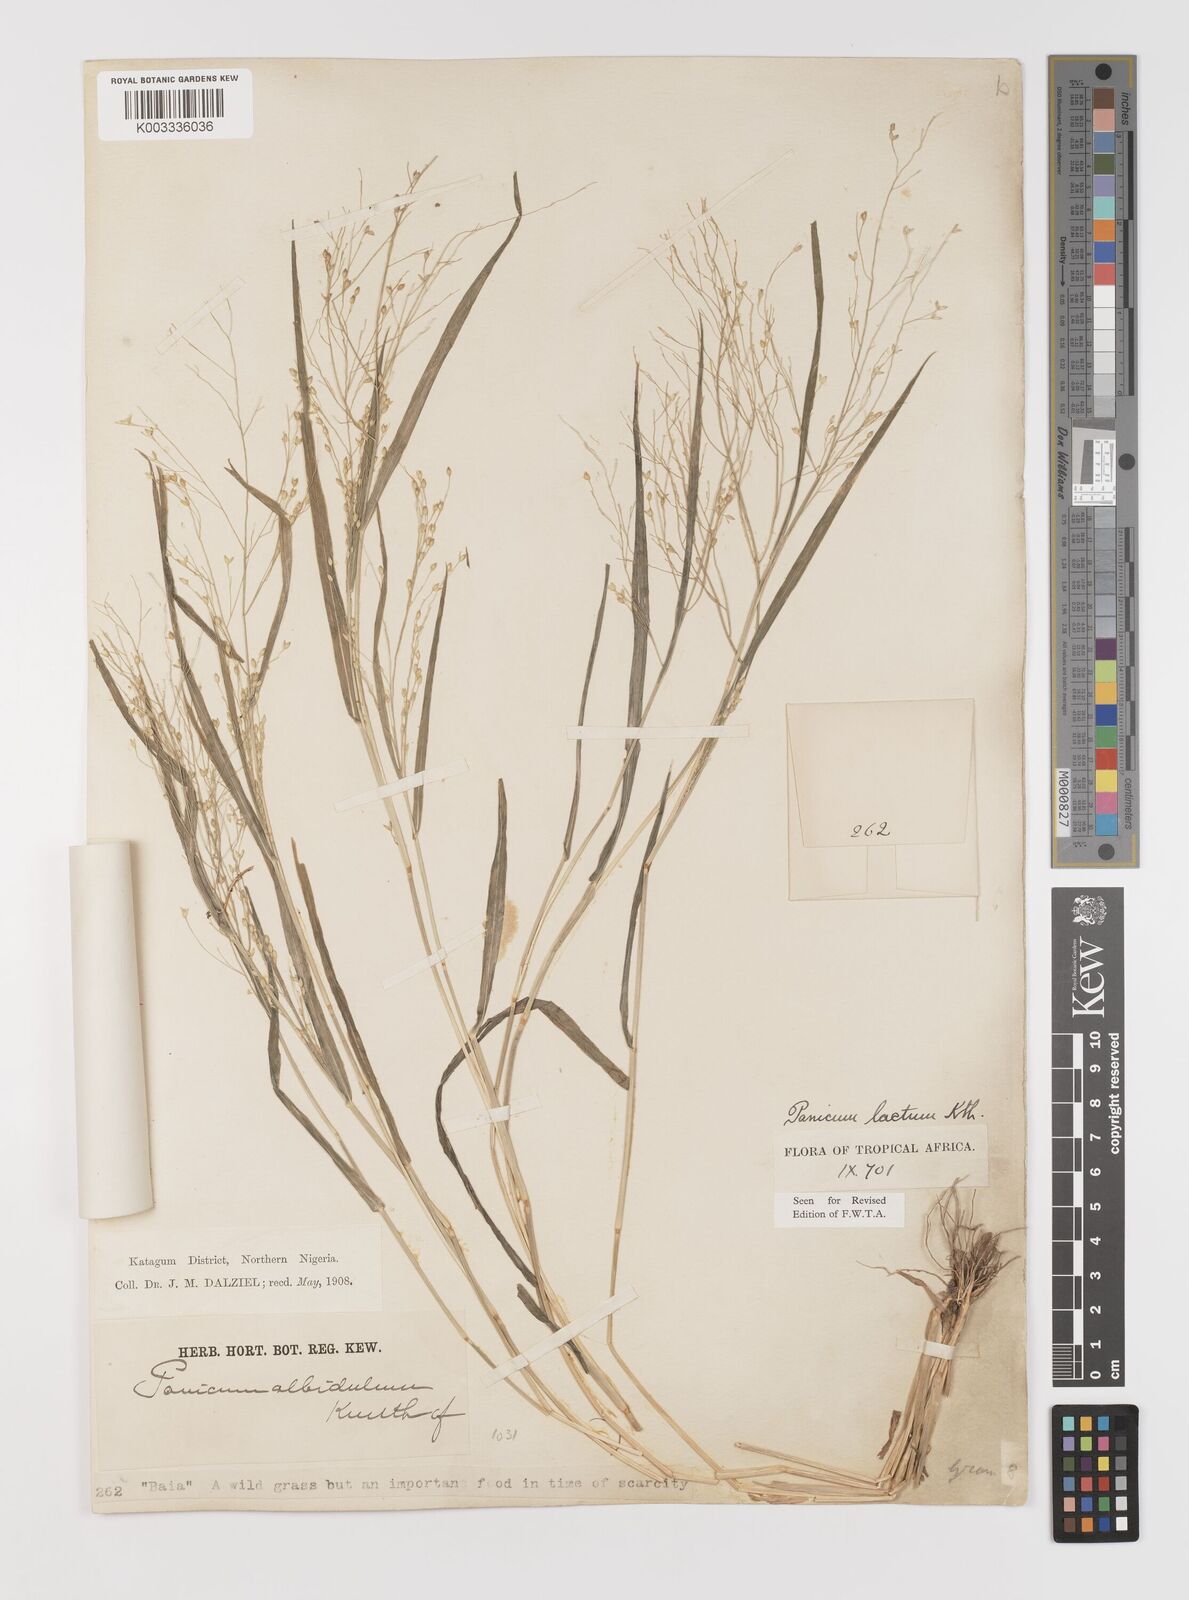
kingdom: Plantae
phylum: Tracheophyta
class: Liliopsida
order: Poales
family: Poaceae
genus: Panicum
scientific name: Panicum laetum
